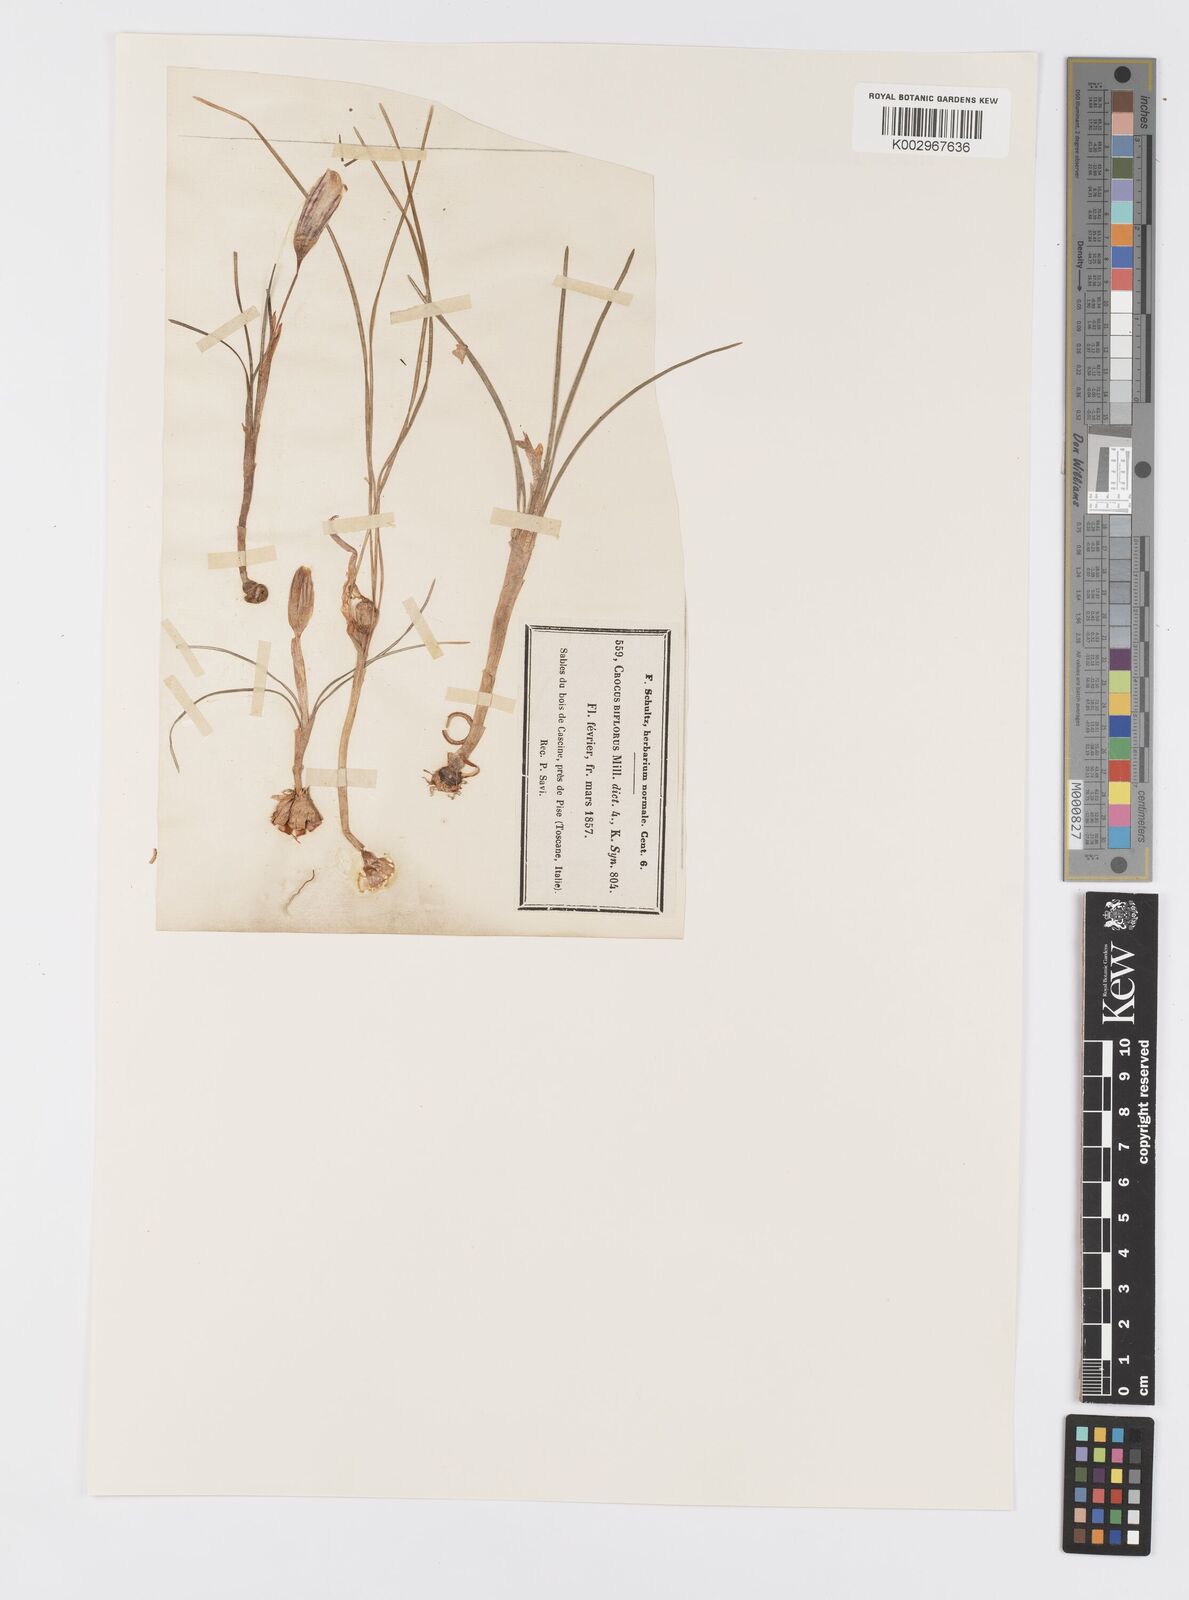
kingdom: Plantae
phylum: Tracheophyta
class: Liliopsida
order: Asparagales
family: Iridaceae
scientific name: Iridaceae
